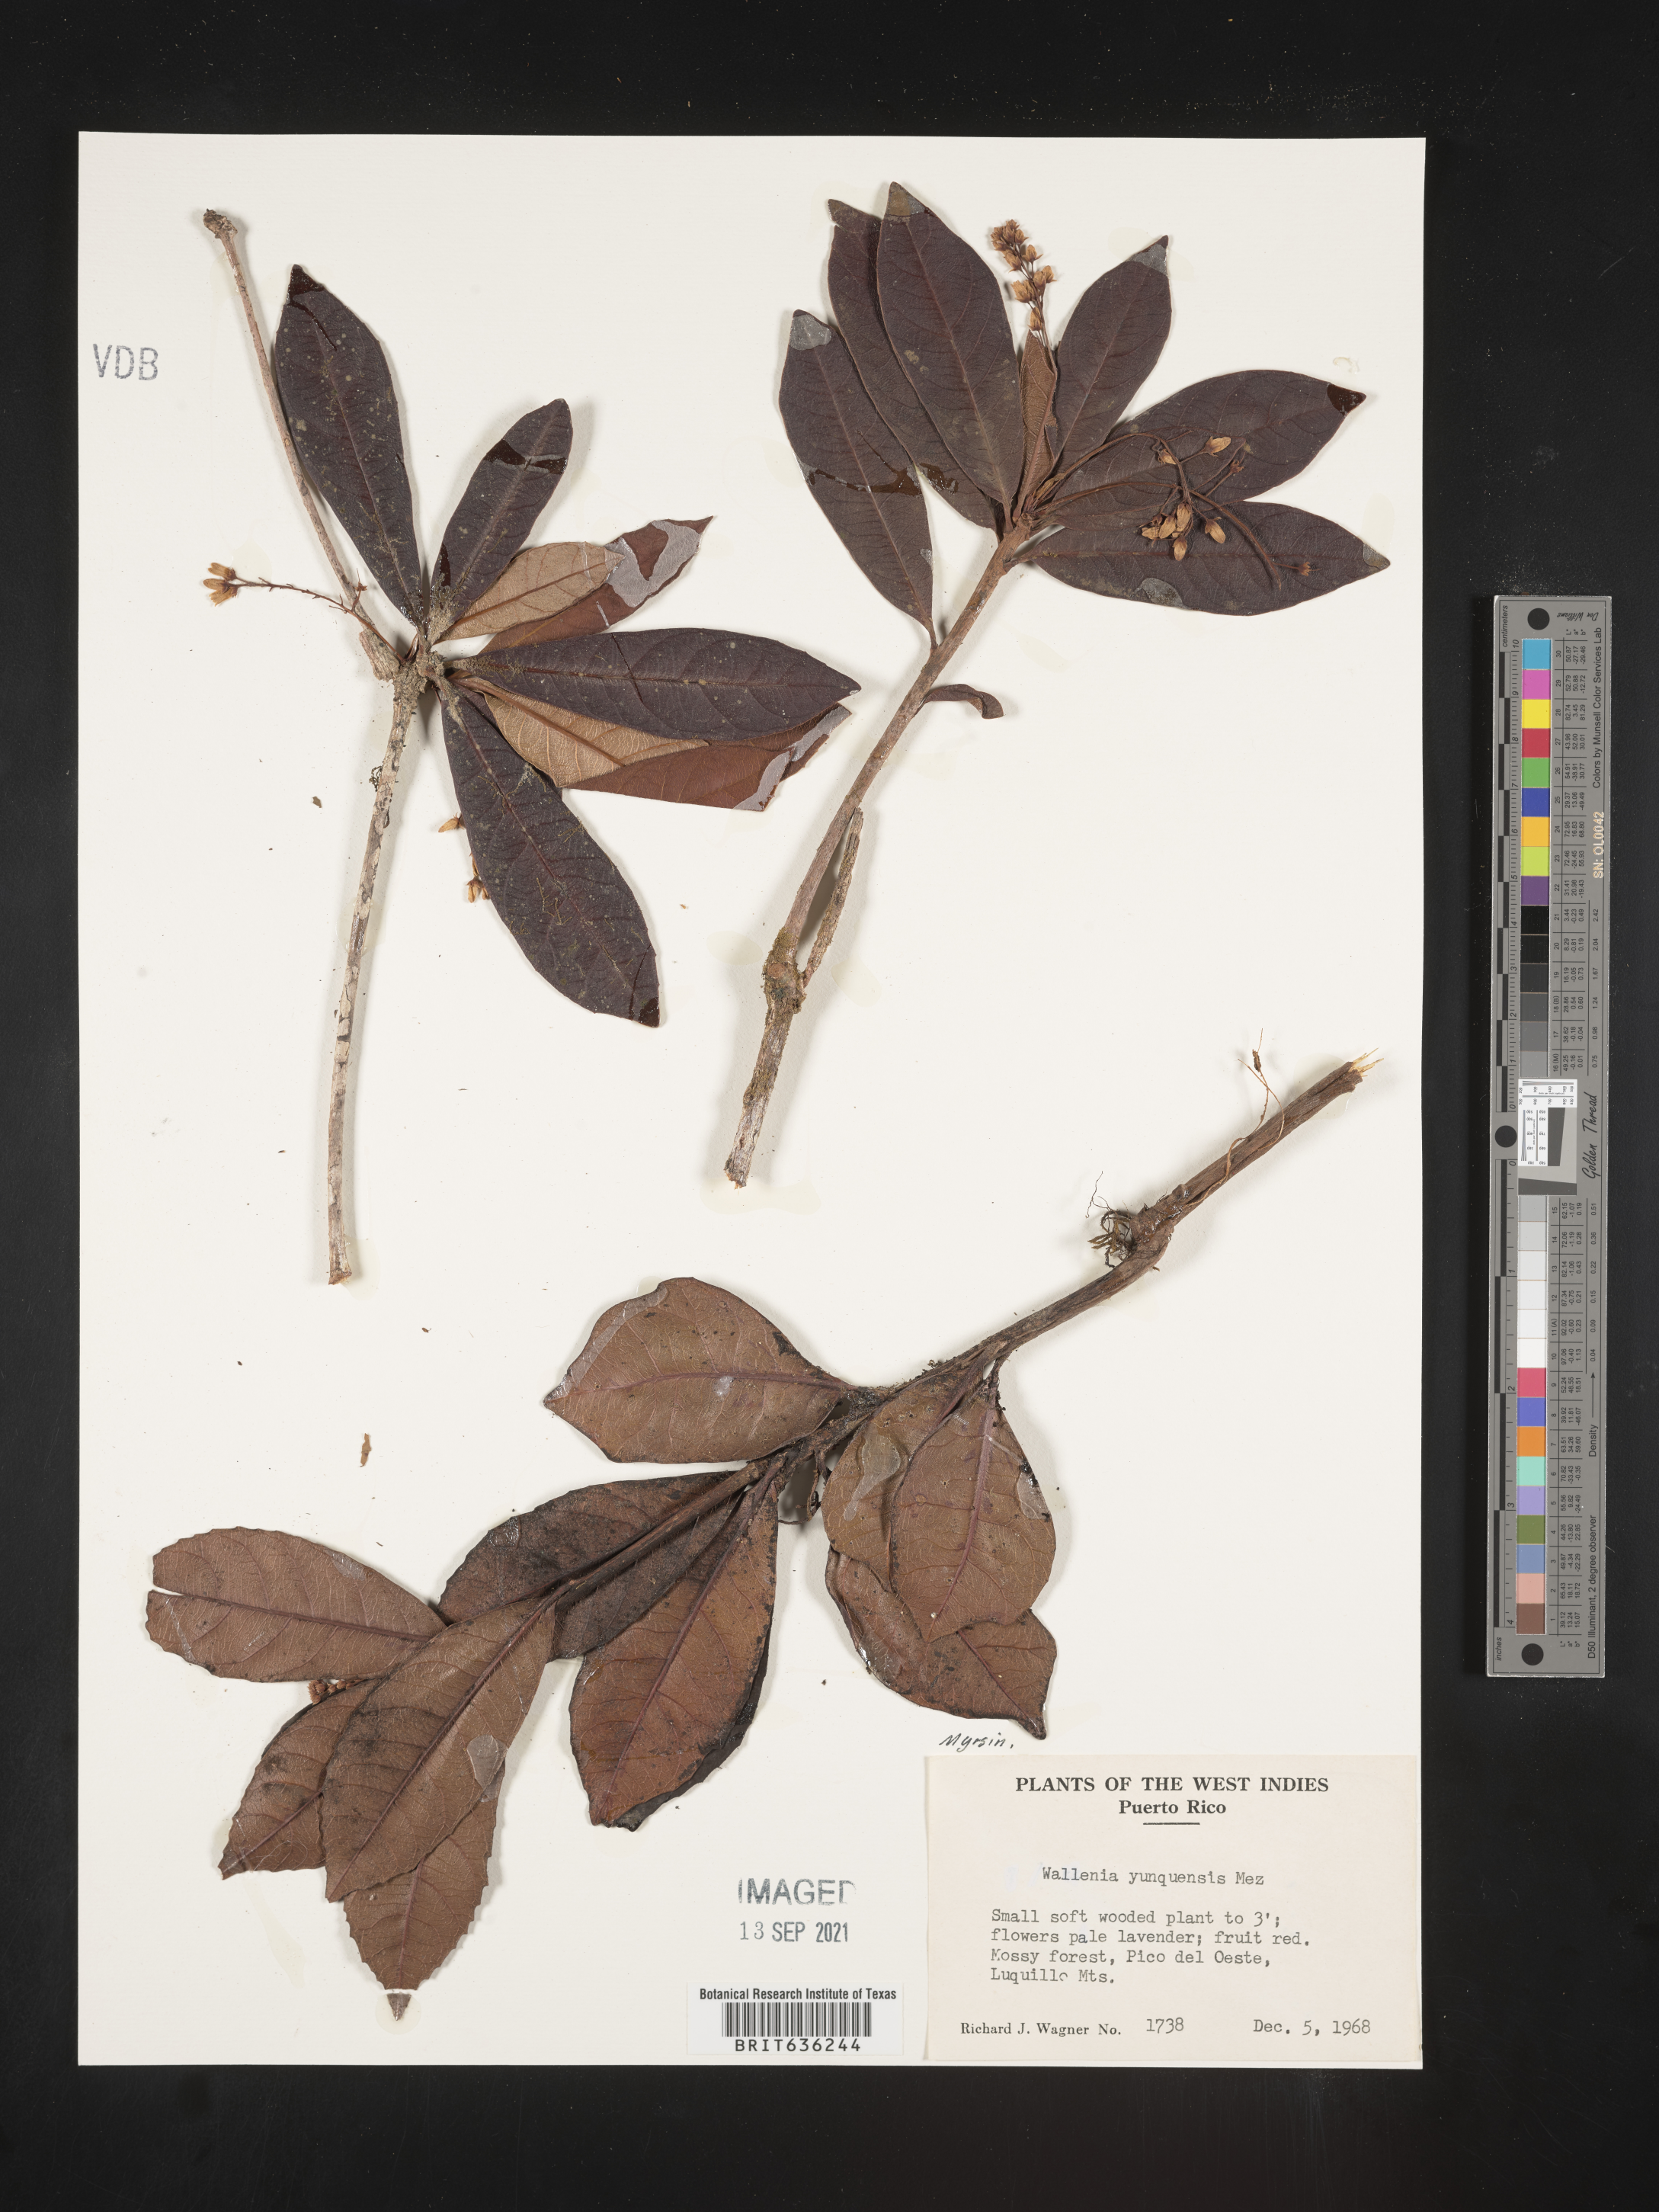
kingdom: Plantae
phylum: Tracheophyta
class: Magnoliopsida
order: Ericales
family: Primulaceae
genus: Wallenia
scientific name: Wallenia
